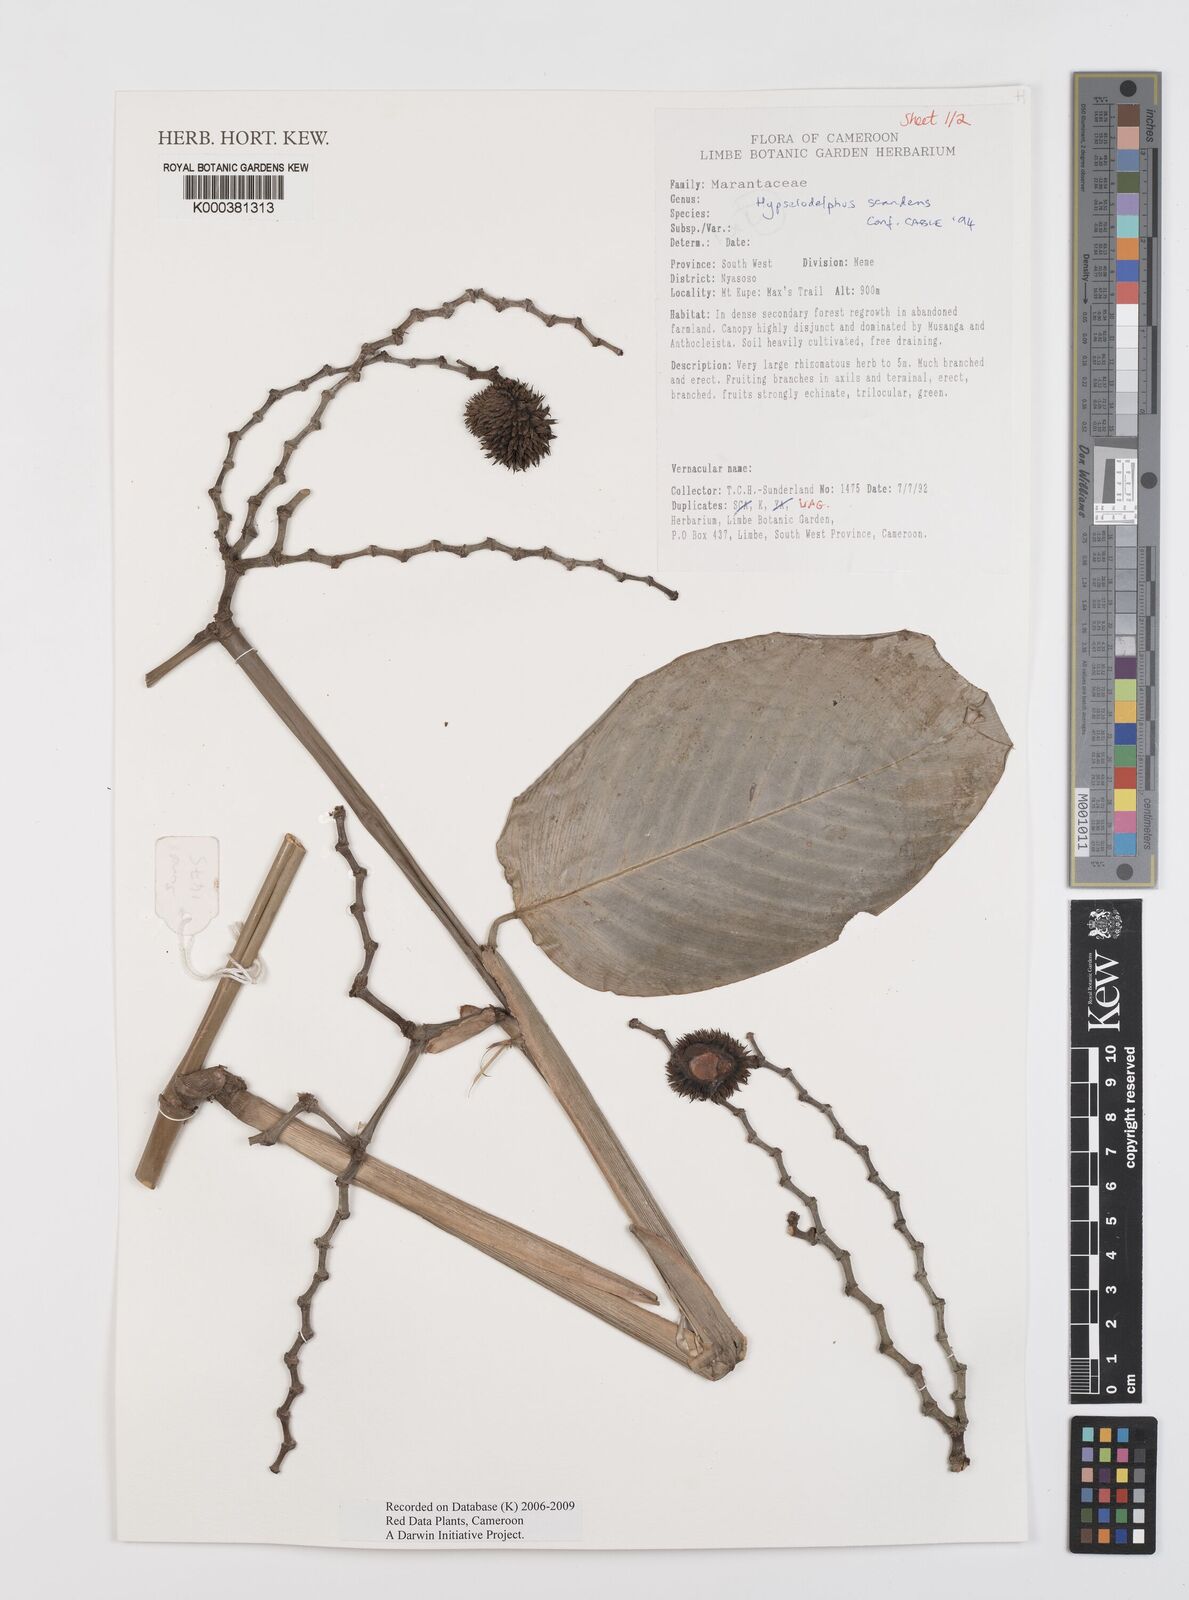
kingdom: Plantae
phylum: Tracheophyta
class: Liliopsida
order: Zingiberales
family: Marantaceae
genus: Hypselodelphys
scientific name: Hypselodelphys scandens
